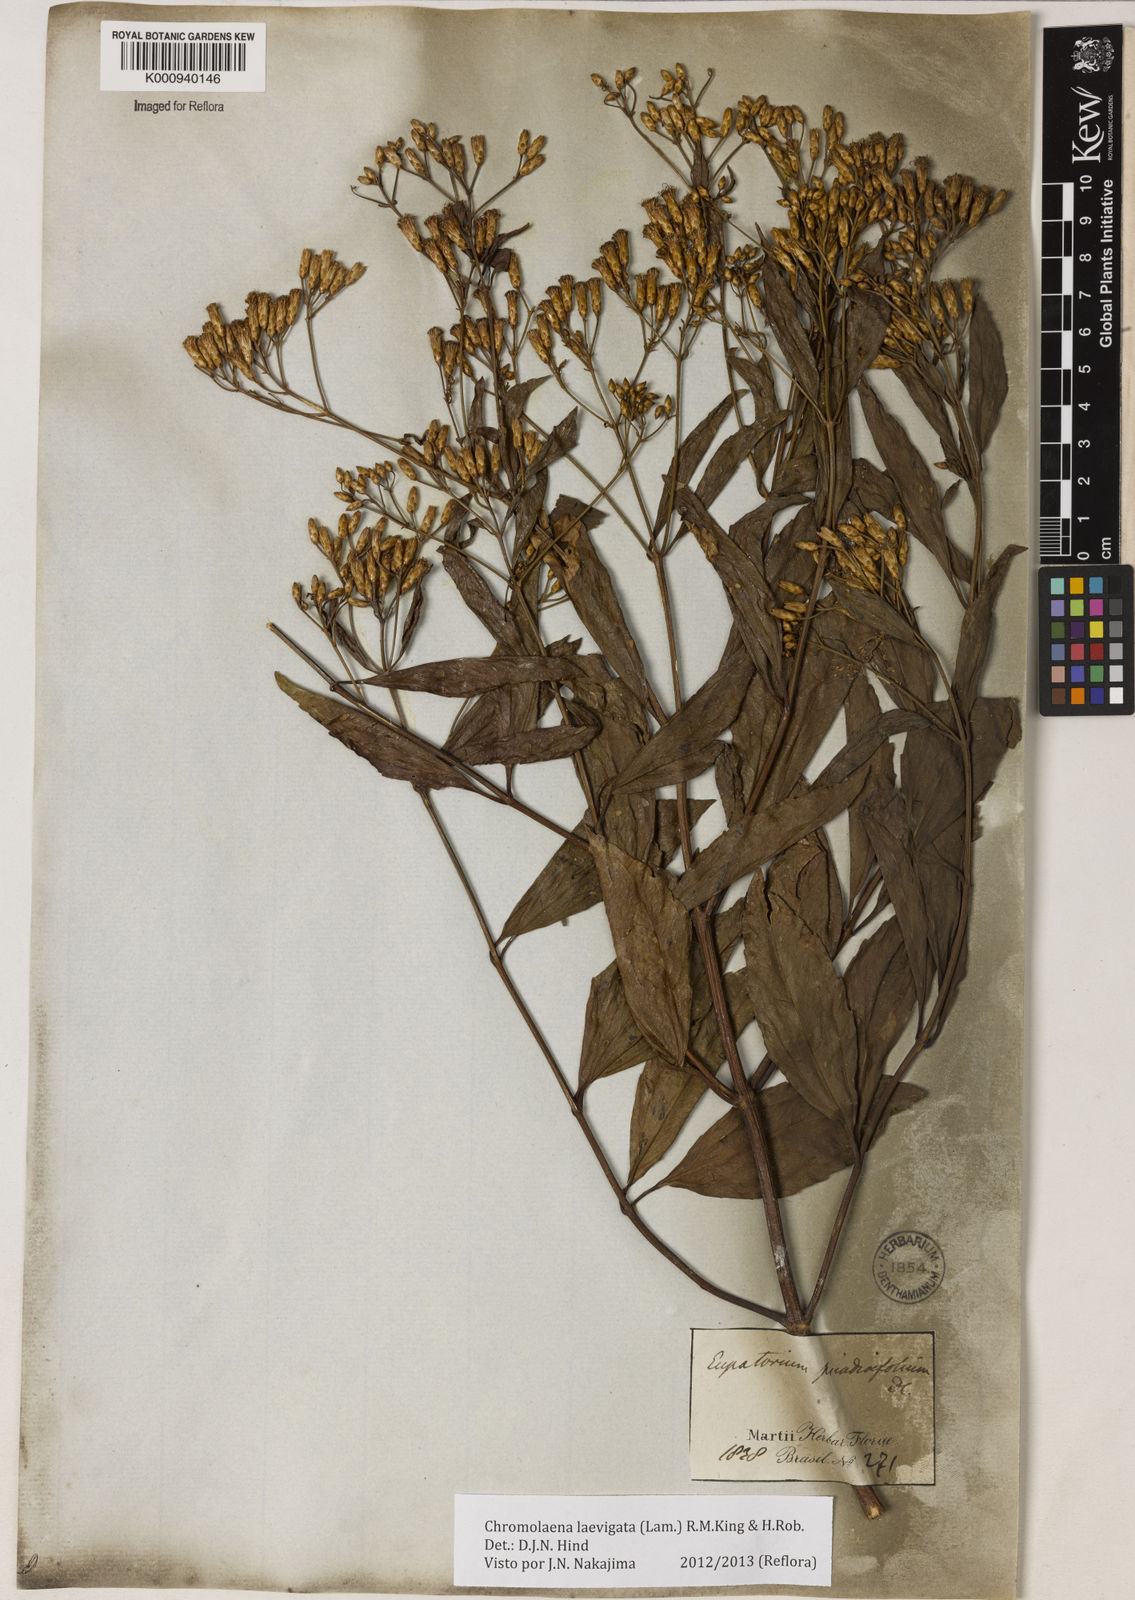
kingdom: Plantae
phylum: Tracheophyta
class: Magnoliopsida
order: Asterales
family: Asteraceae
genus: Chromolaena
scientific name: Chromolaena laevigata
